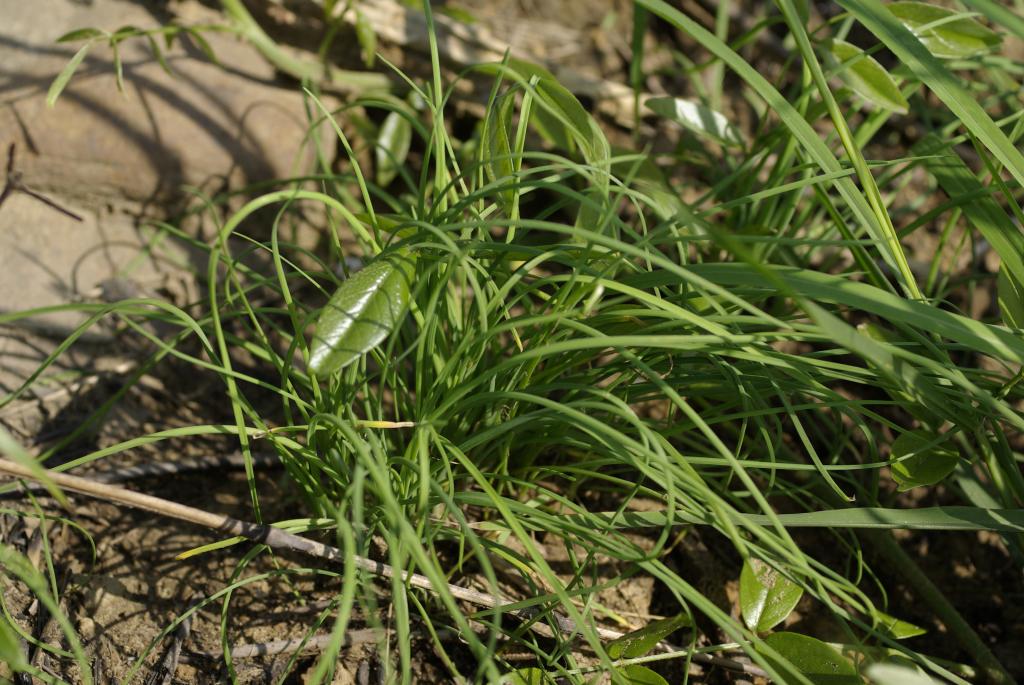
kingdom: Plantae
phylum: Tracheophyta
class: Liliopsida
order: Asparagales
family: Amaryllidaceae
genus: Allium
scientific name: Allium macrostemon
